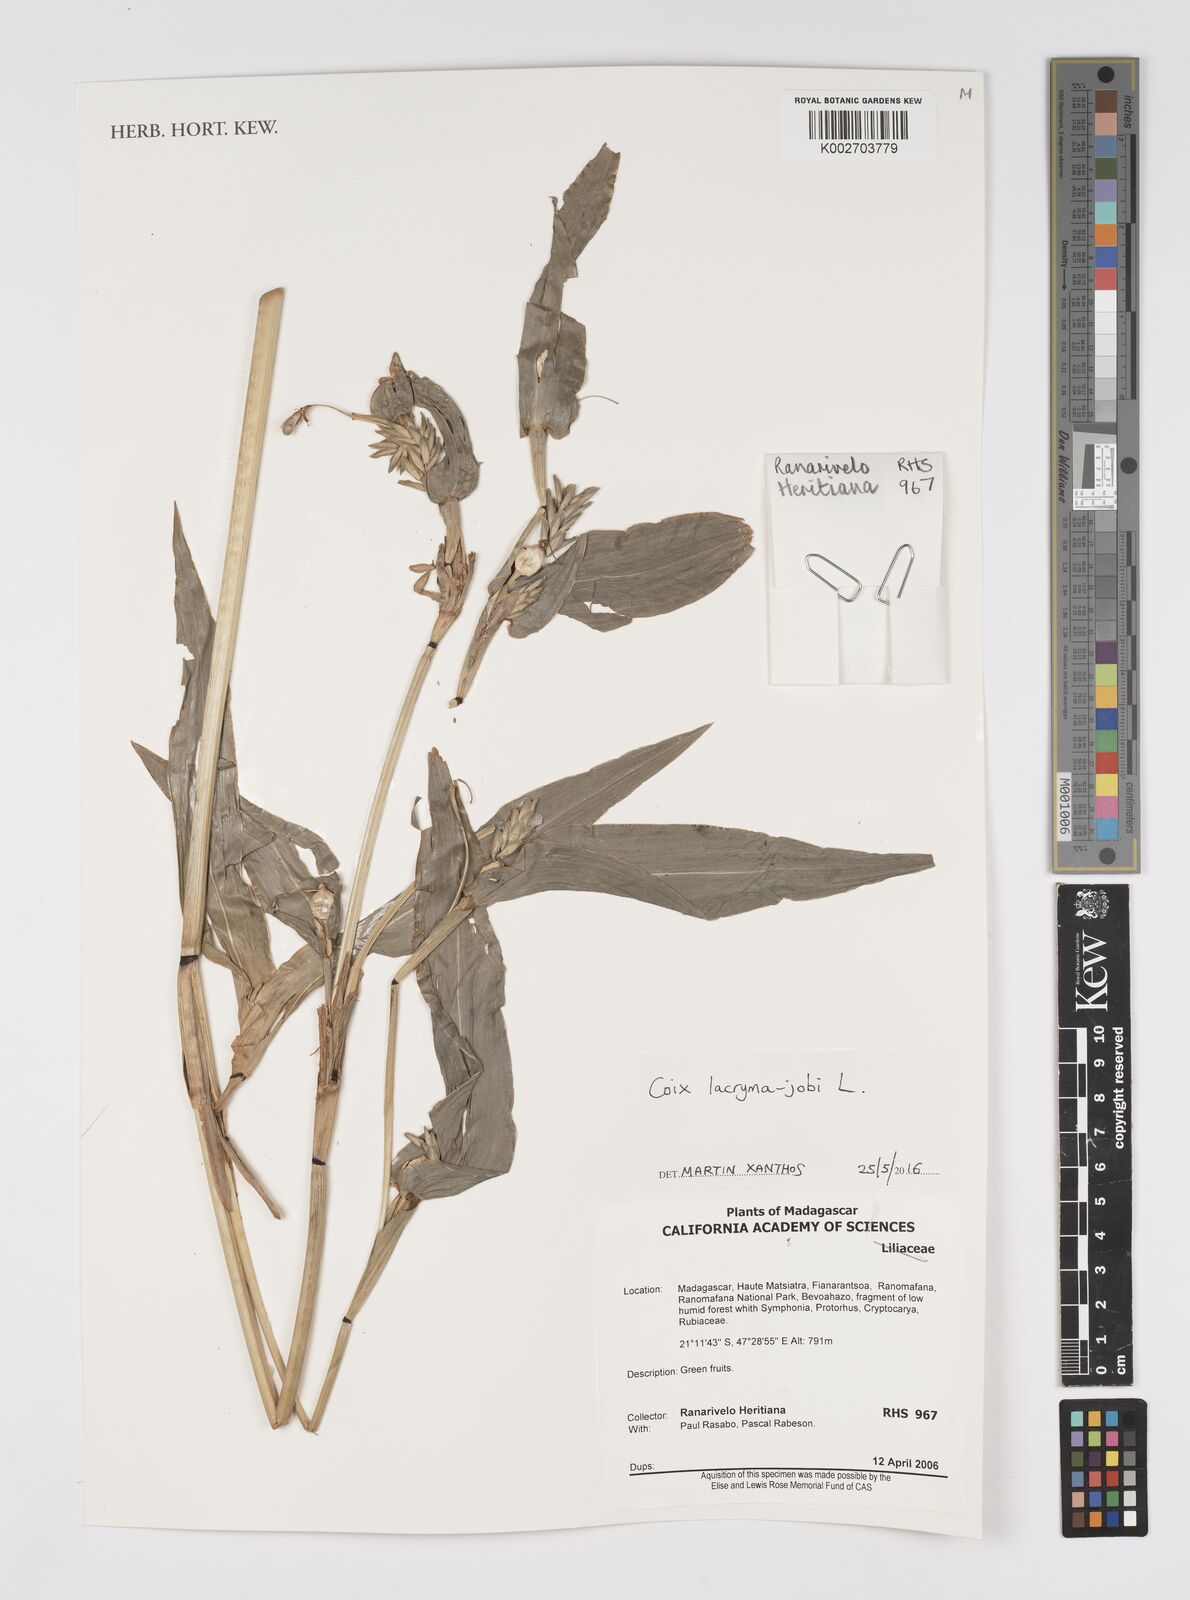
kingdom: Plantae
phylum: Tracheophyta
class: Liliopsida
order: Poales
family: Poaceae
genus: Coix
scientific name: Coix lacryma-jobi
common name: Job's tears
